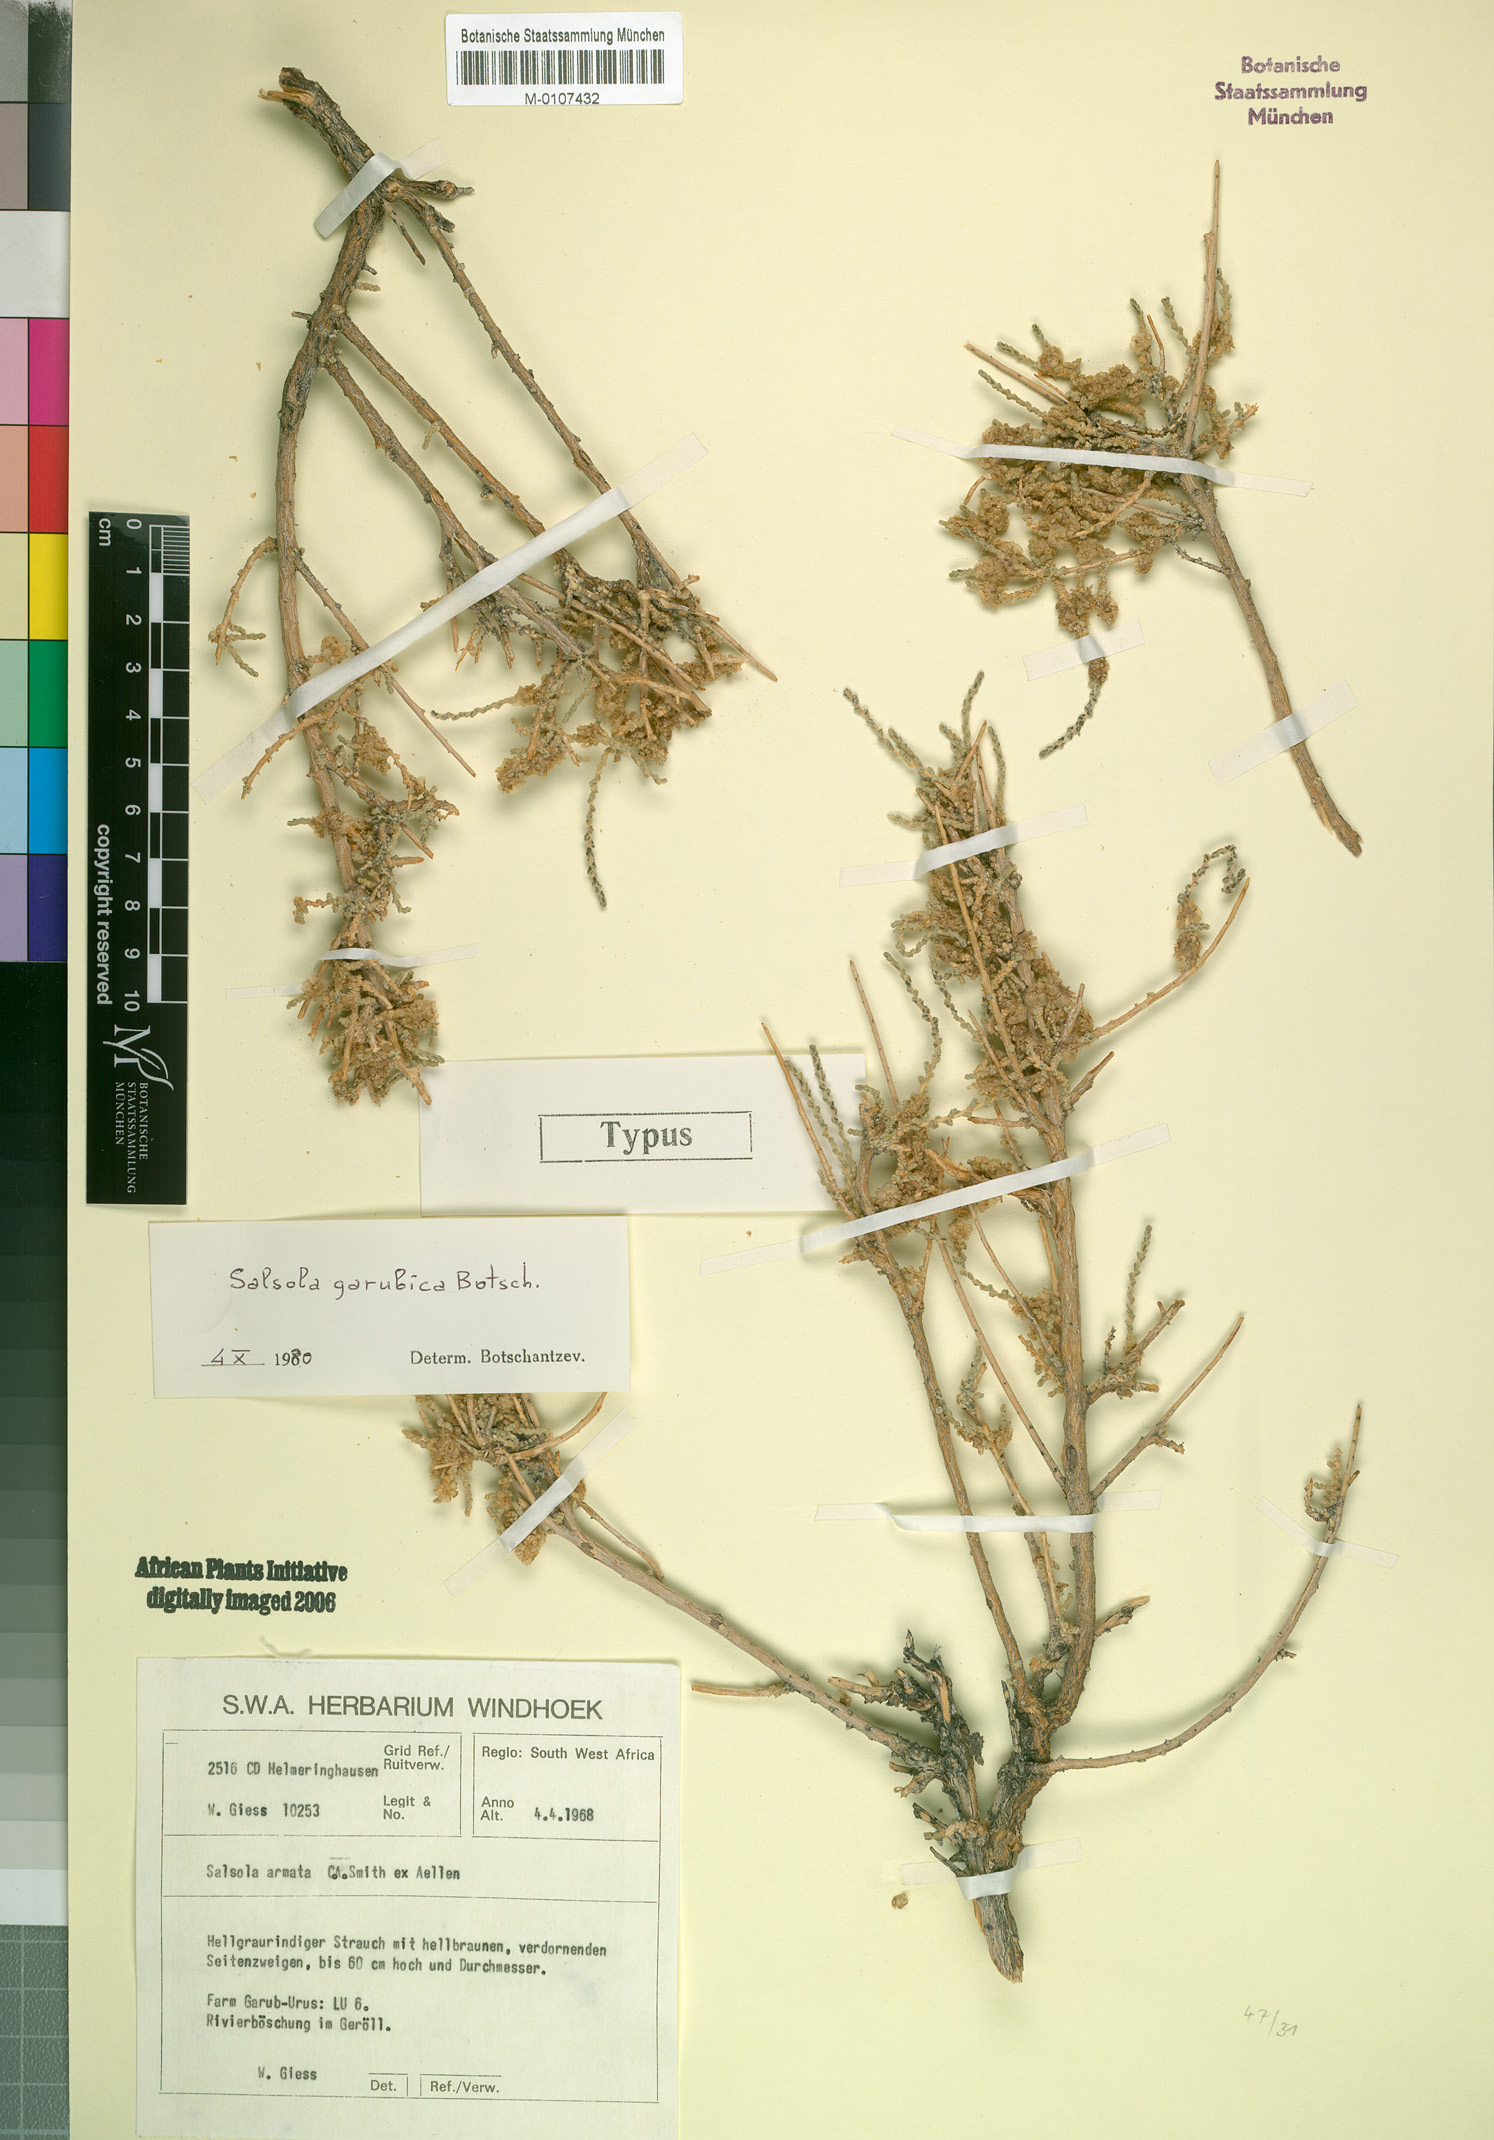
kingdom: Plantae
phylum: Tracheophyta
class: Magnoliopsida
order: Caryophyllales
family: Amaranthaceae
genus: Caroxylon
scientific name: Caroxylon garubicum
